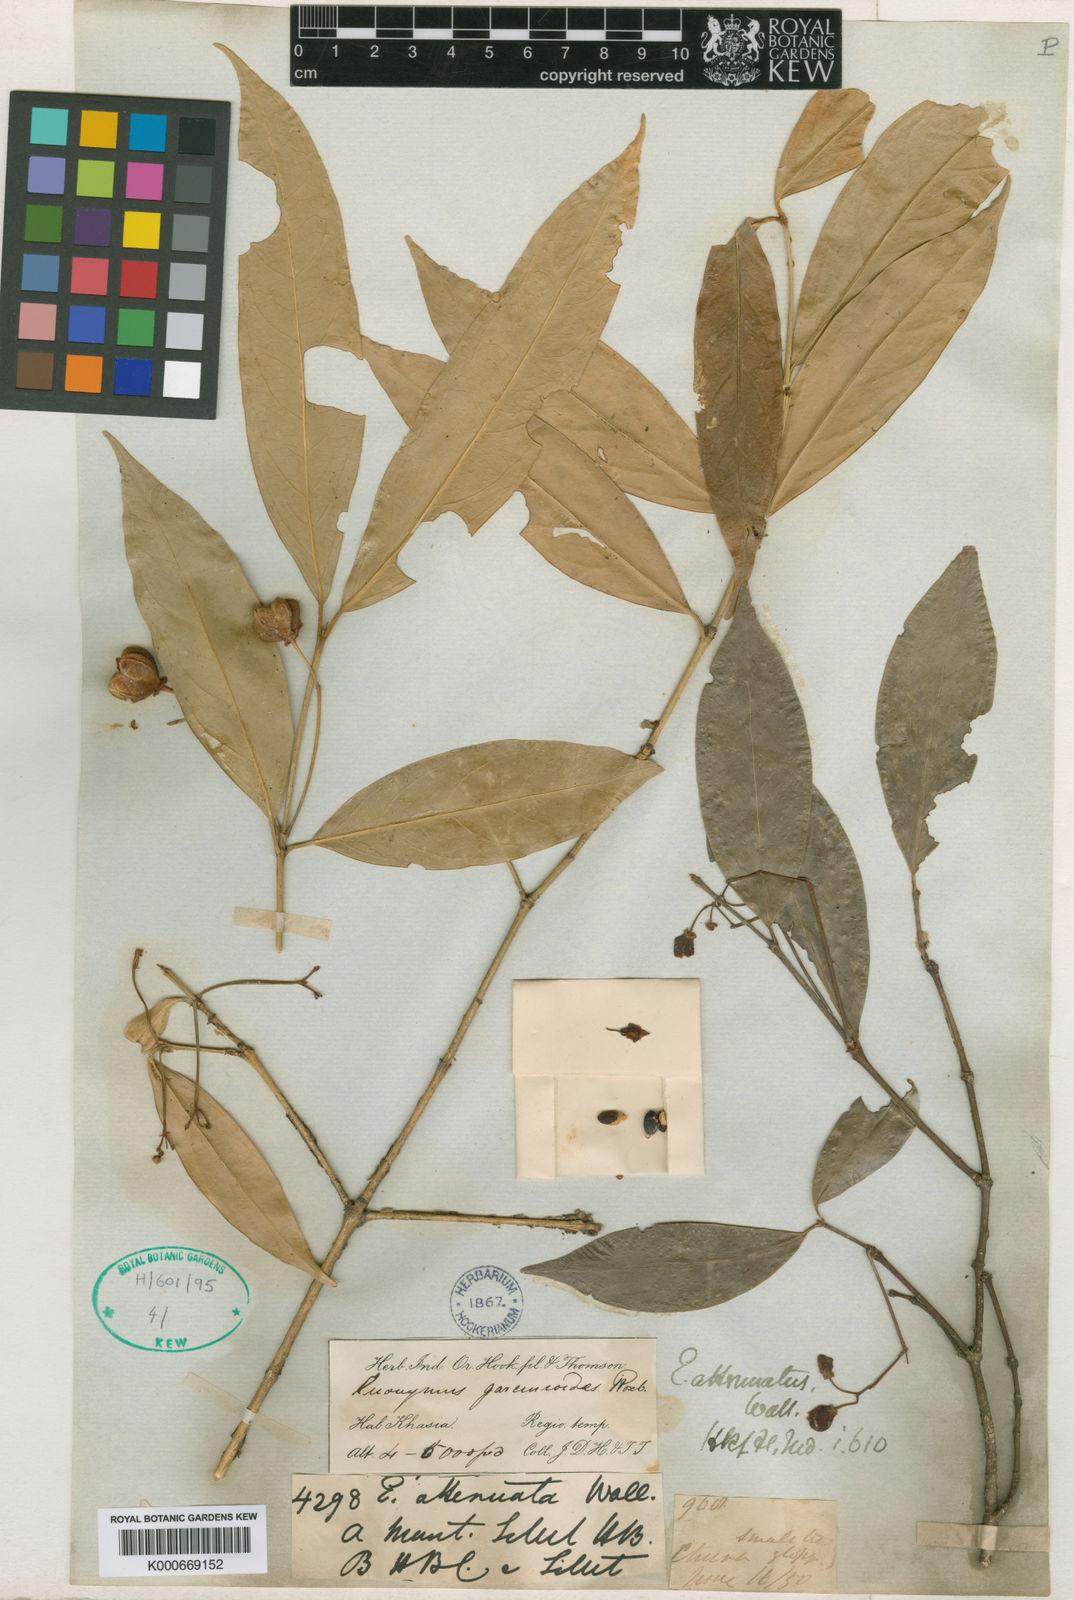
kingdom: Plantae
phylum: Tracheophyta
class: Magnoliopsida
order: Celastrales
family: Celastraceae
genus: Euonymus
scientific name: Euonymus attenuatus
